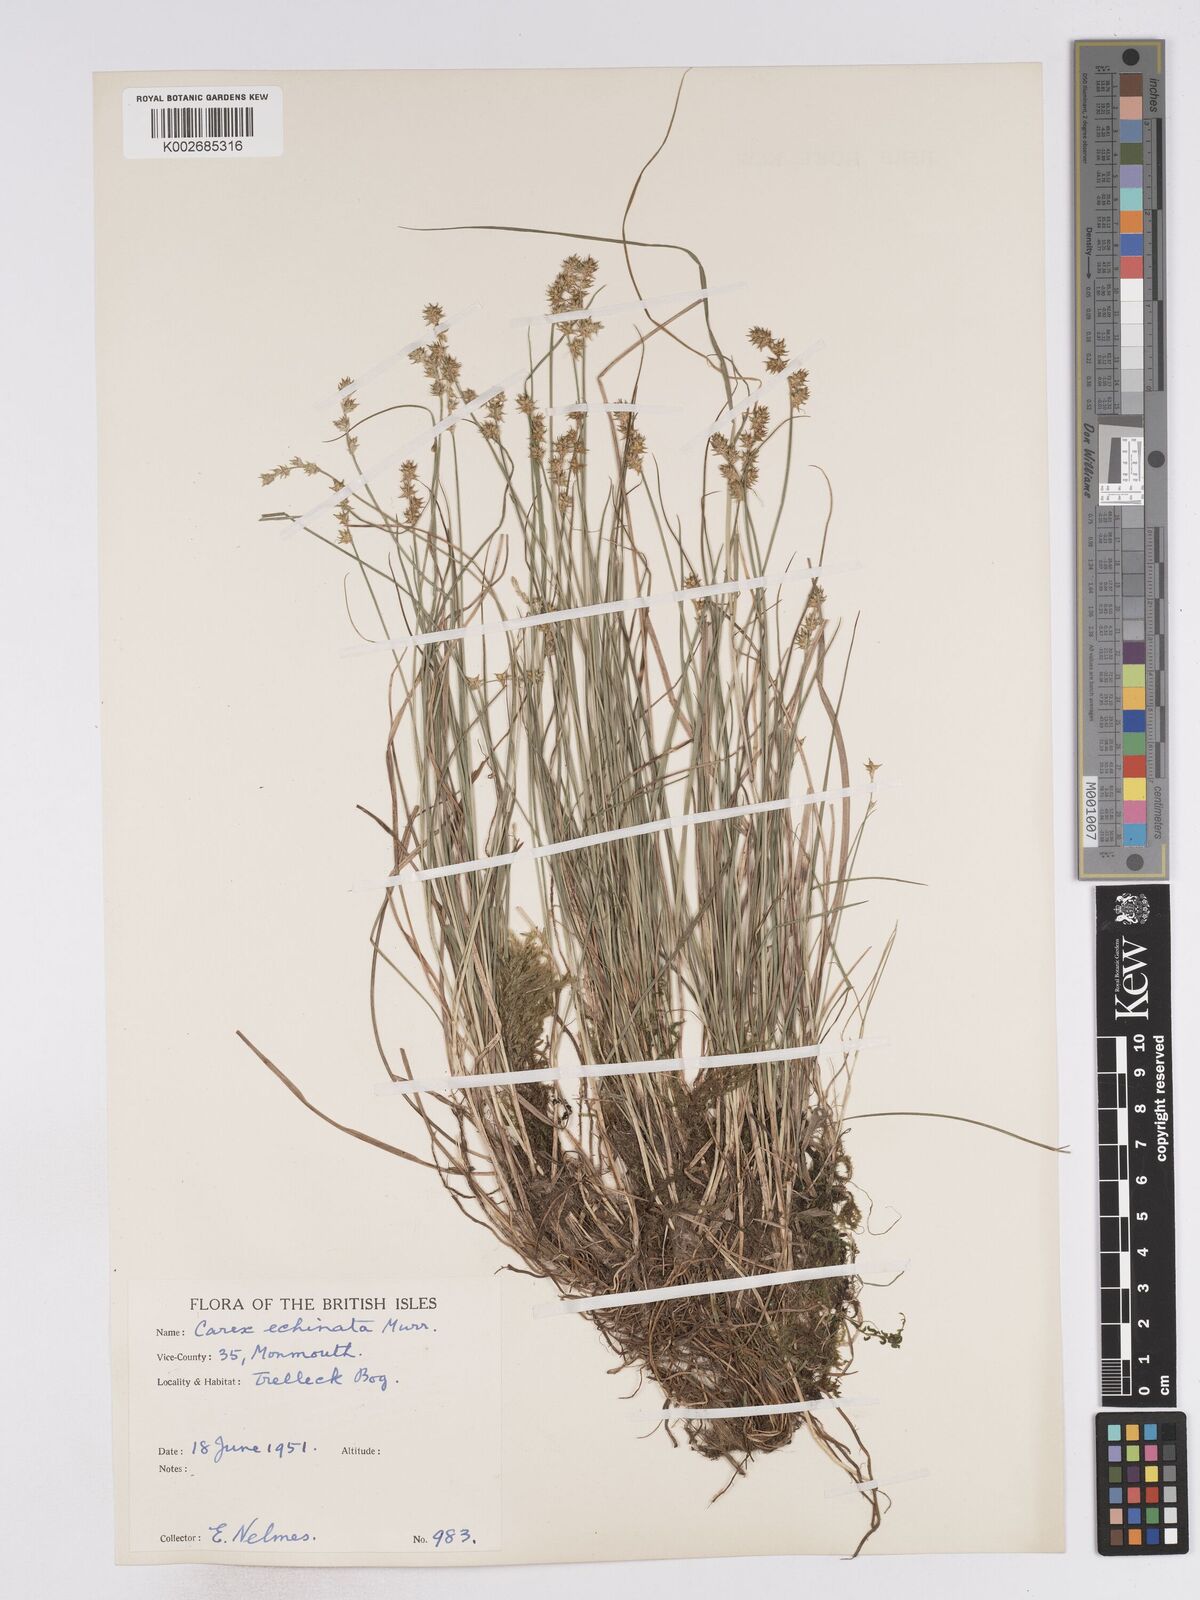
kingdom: Plantae
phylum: Tracheophyta
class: Liliopsida
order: Poales
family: Cyperaceae
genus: Carex
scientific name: Carex echinata
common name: Star sedge
